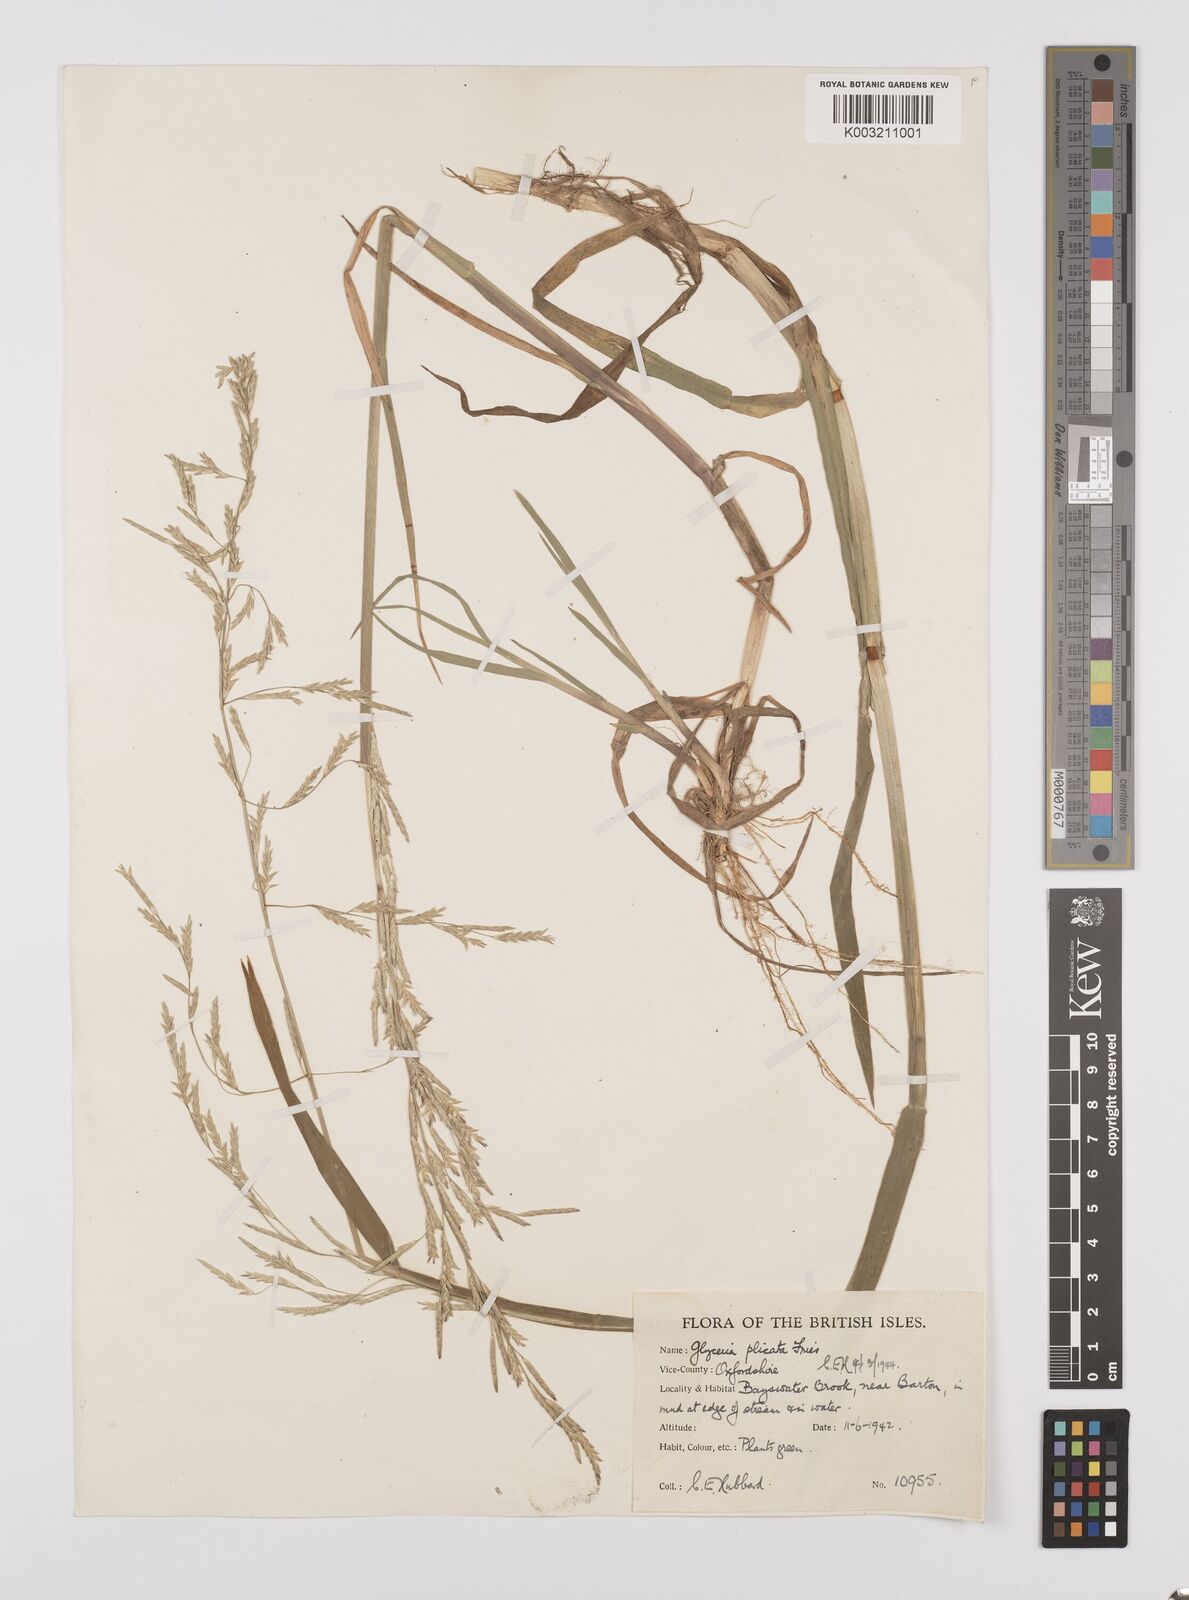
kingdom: Plantae
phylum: Tracheophyta
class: Liliopsida
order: Poales
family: Poaceae
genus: Glyceria
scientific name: Glyceria notata
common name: Plicate sweet-grass
